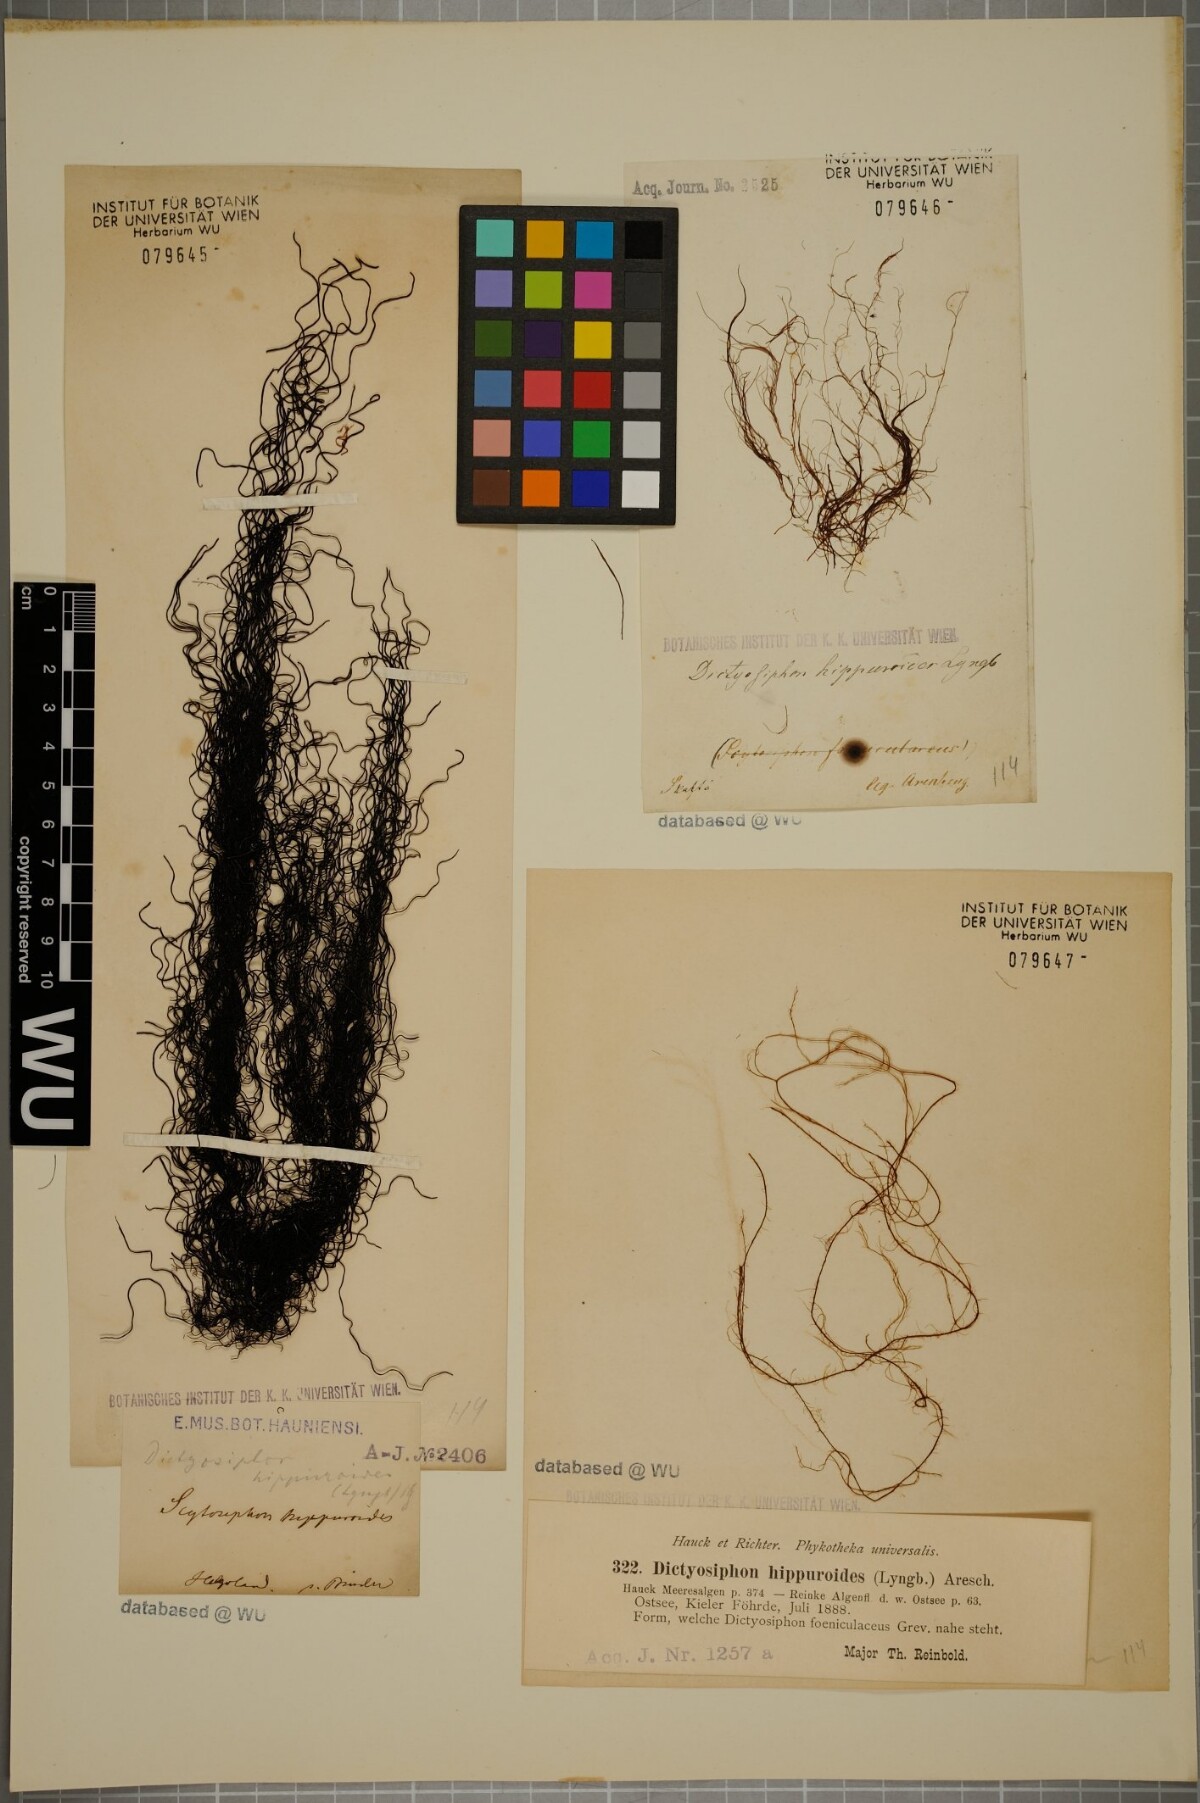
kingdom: Chromista
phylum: Ochrophyta
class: Phaeophyceae
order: Ectocarpales
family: Chordariaceae
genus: Dictyosiphon
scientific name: Dictyosiphon foeniculaceus
